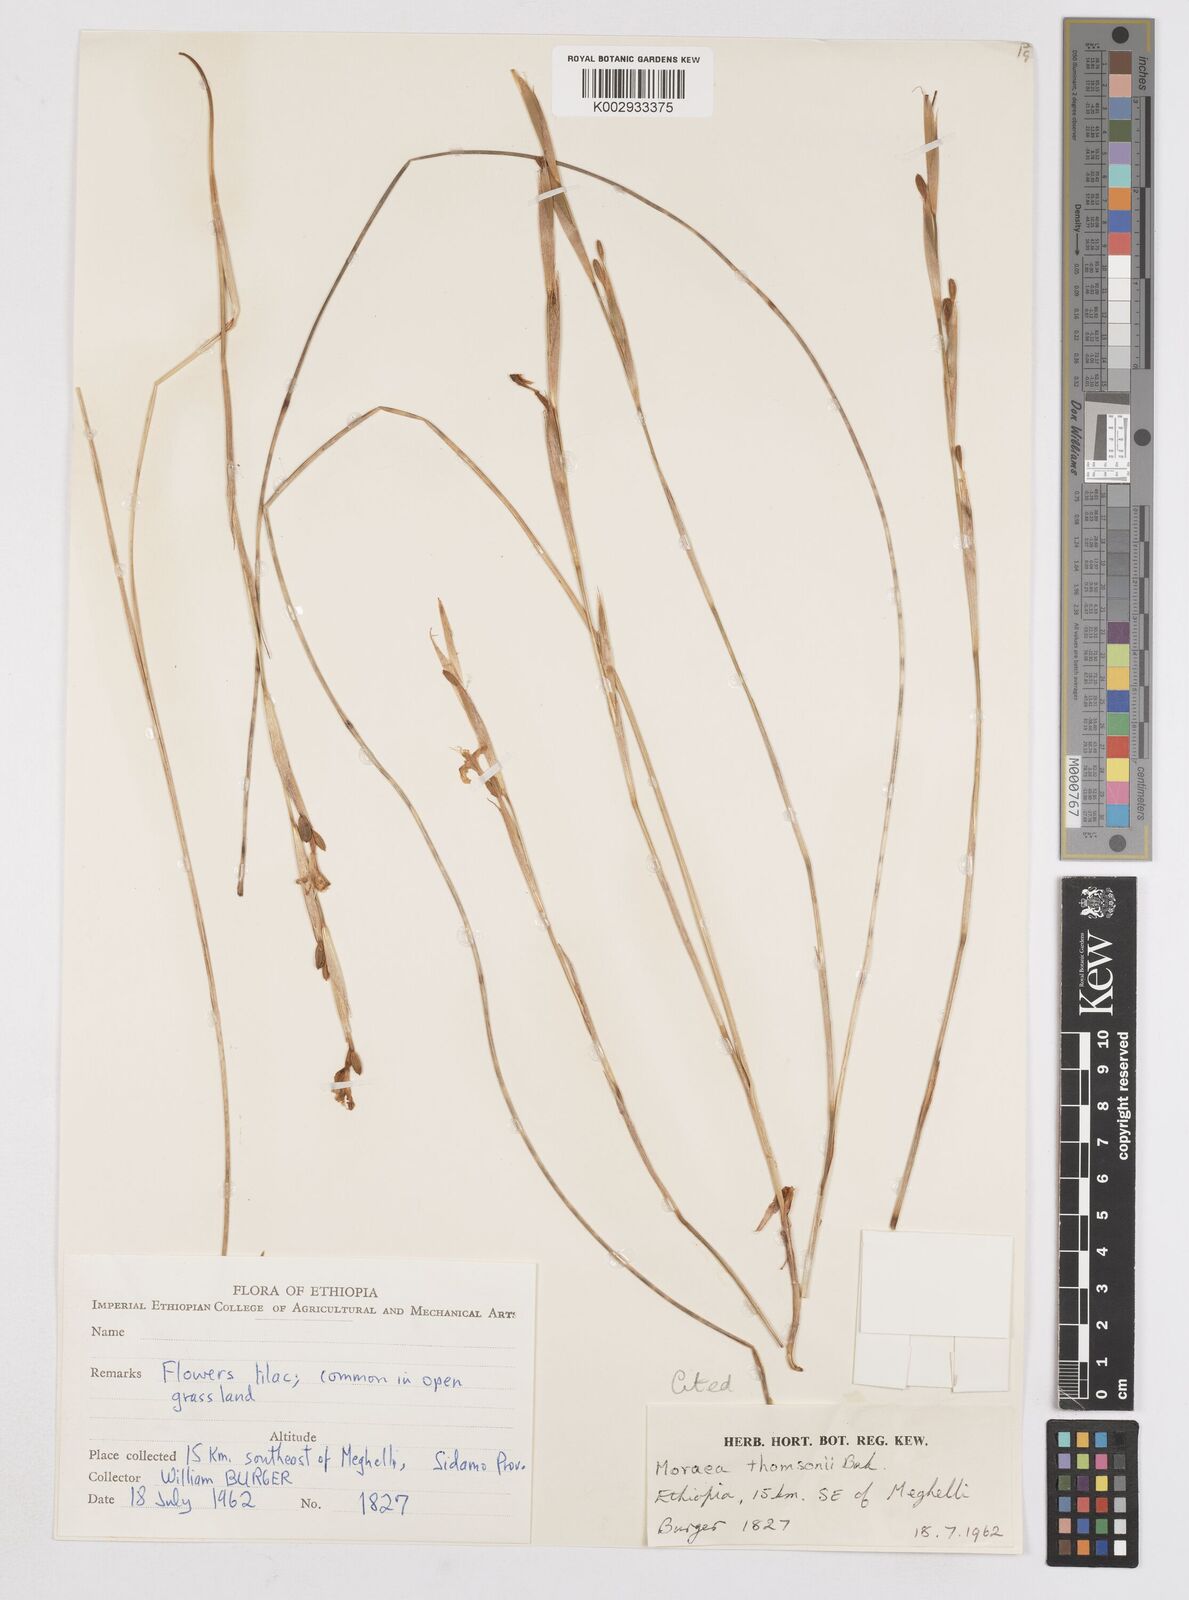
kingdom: Plantae
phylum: Tracheophyta
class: Liliopsida
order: Asparagales
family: Iridaceae
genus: Moraea
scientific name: Moraea thomsonii
